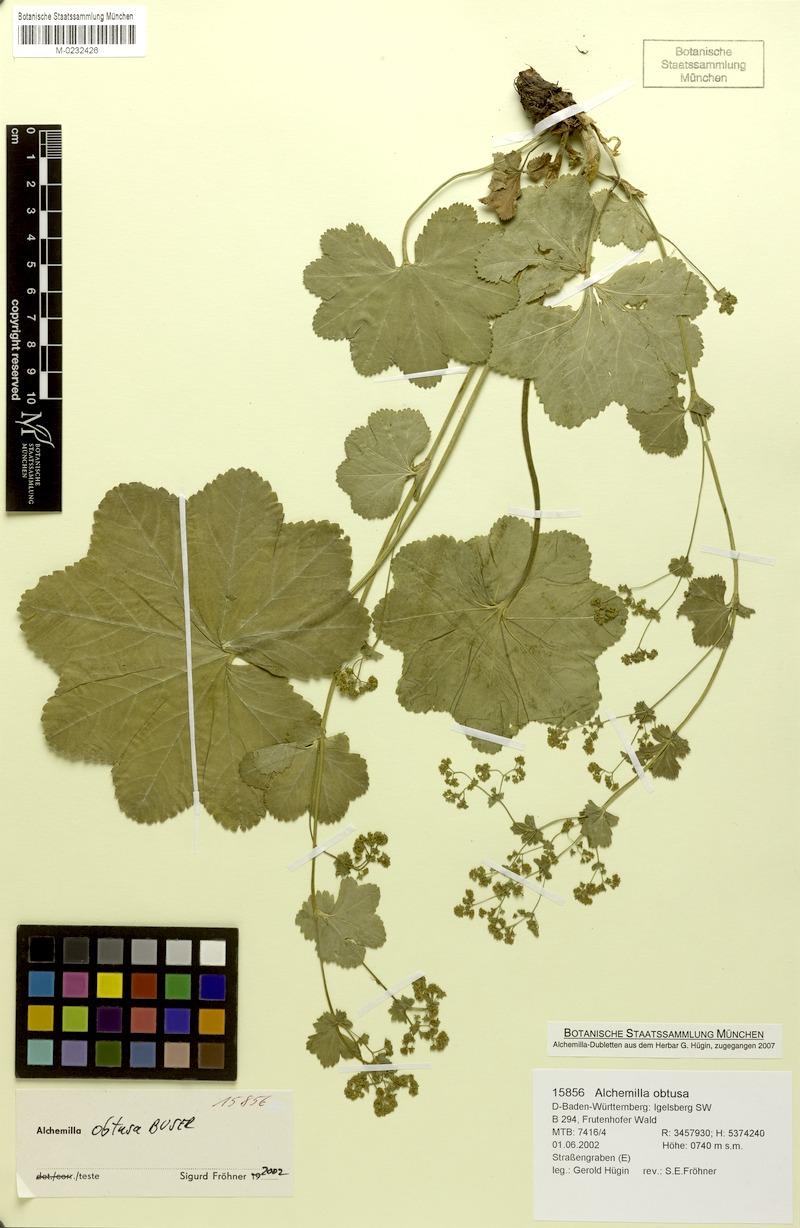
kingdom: Plantae
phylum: Tracheophyta
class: Magnoliopsida
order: Rosales
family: Rosaceae
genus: Alchemilla
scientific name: Alchemilla obtusa
